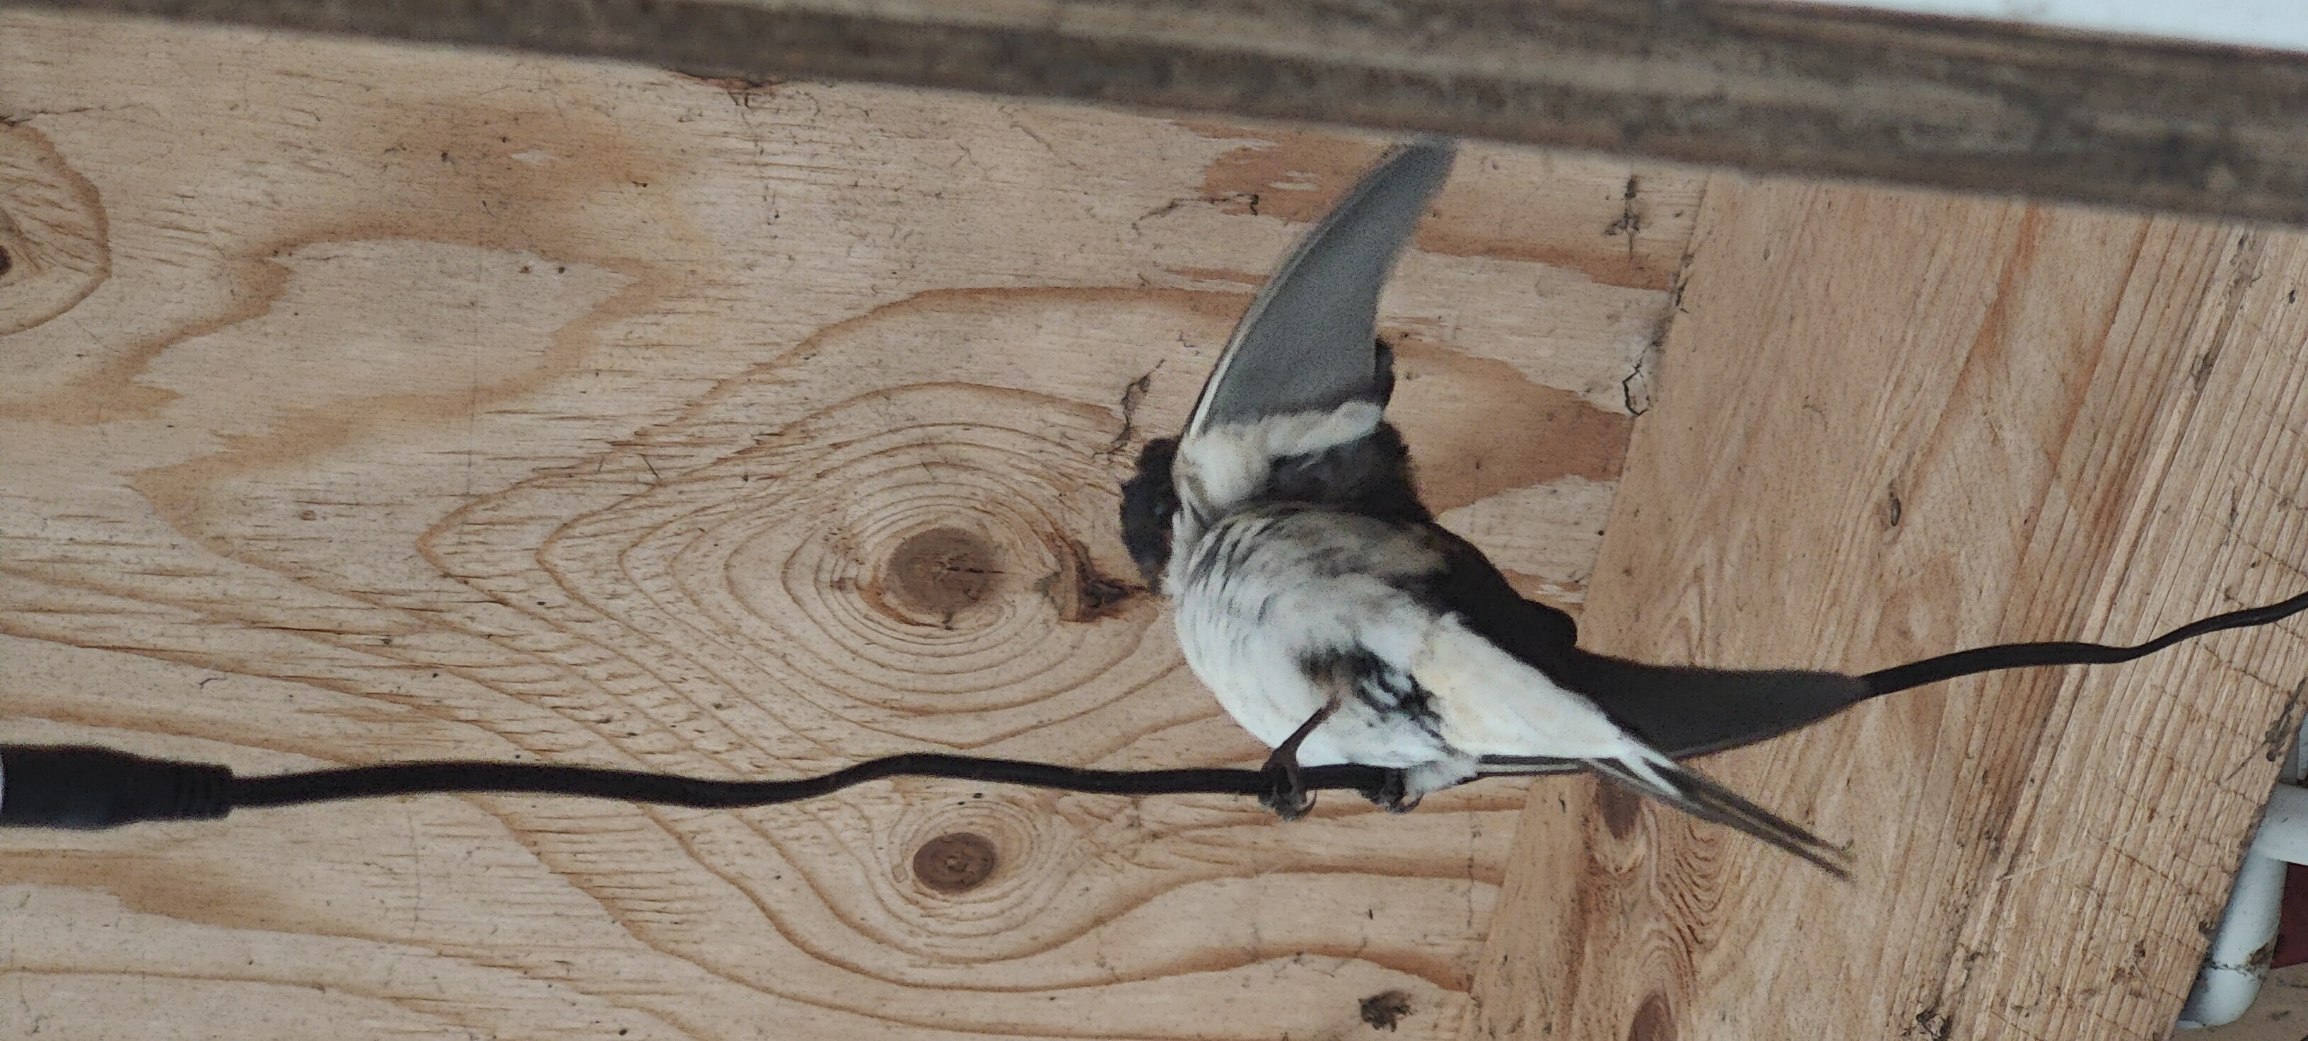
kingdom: Animalia
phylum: Chordata
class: Aves
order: Passeriformes
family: Hirundinidae
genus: Delichon
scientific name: Delichon urbicum
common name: Bysvale
